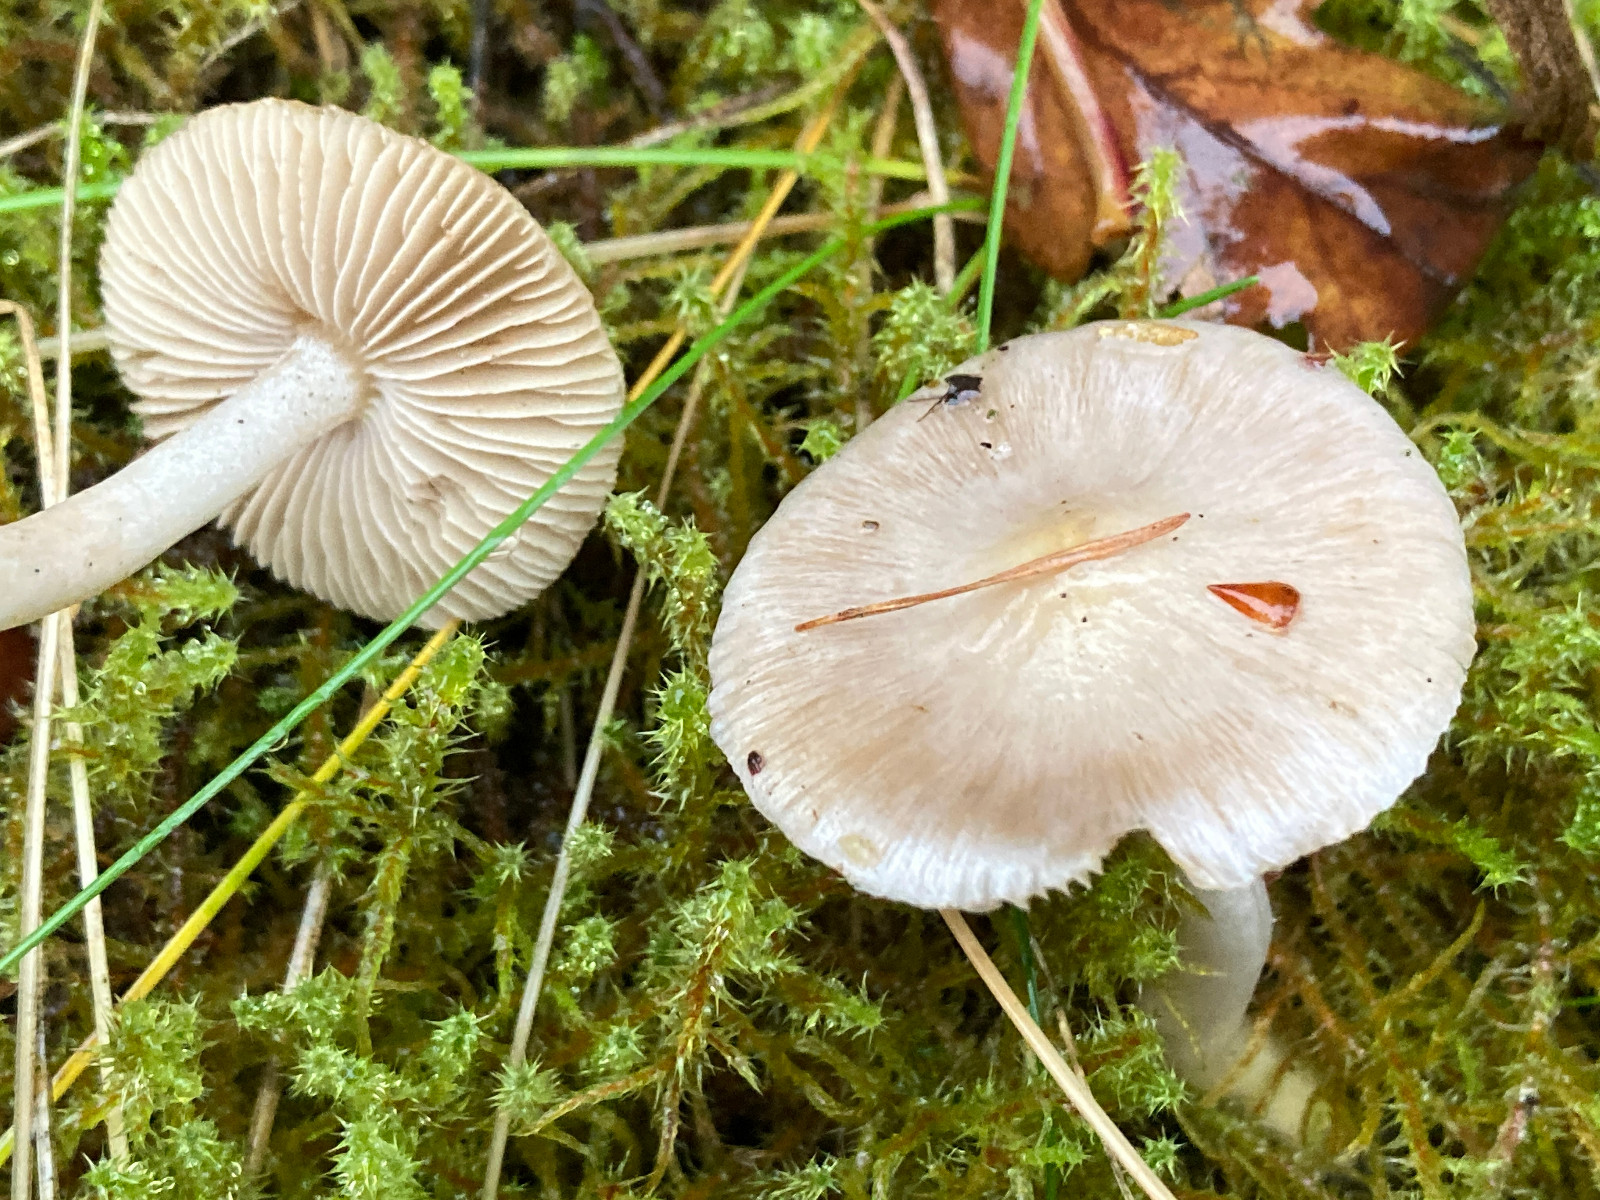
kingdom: Fungi
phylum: Basidiomycota
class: Agaricomycetes
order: Agaricales
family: Inocybaceae
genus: Inocybe
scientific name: Inocybe
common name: almindelig trævlhat
